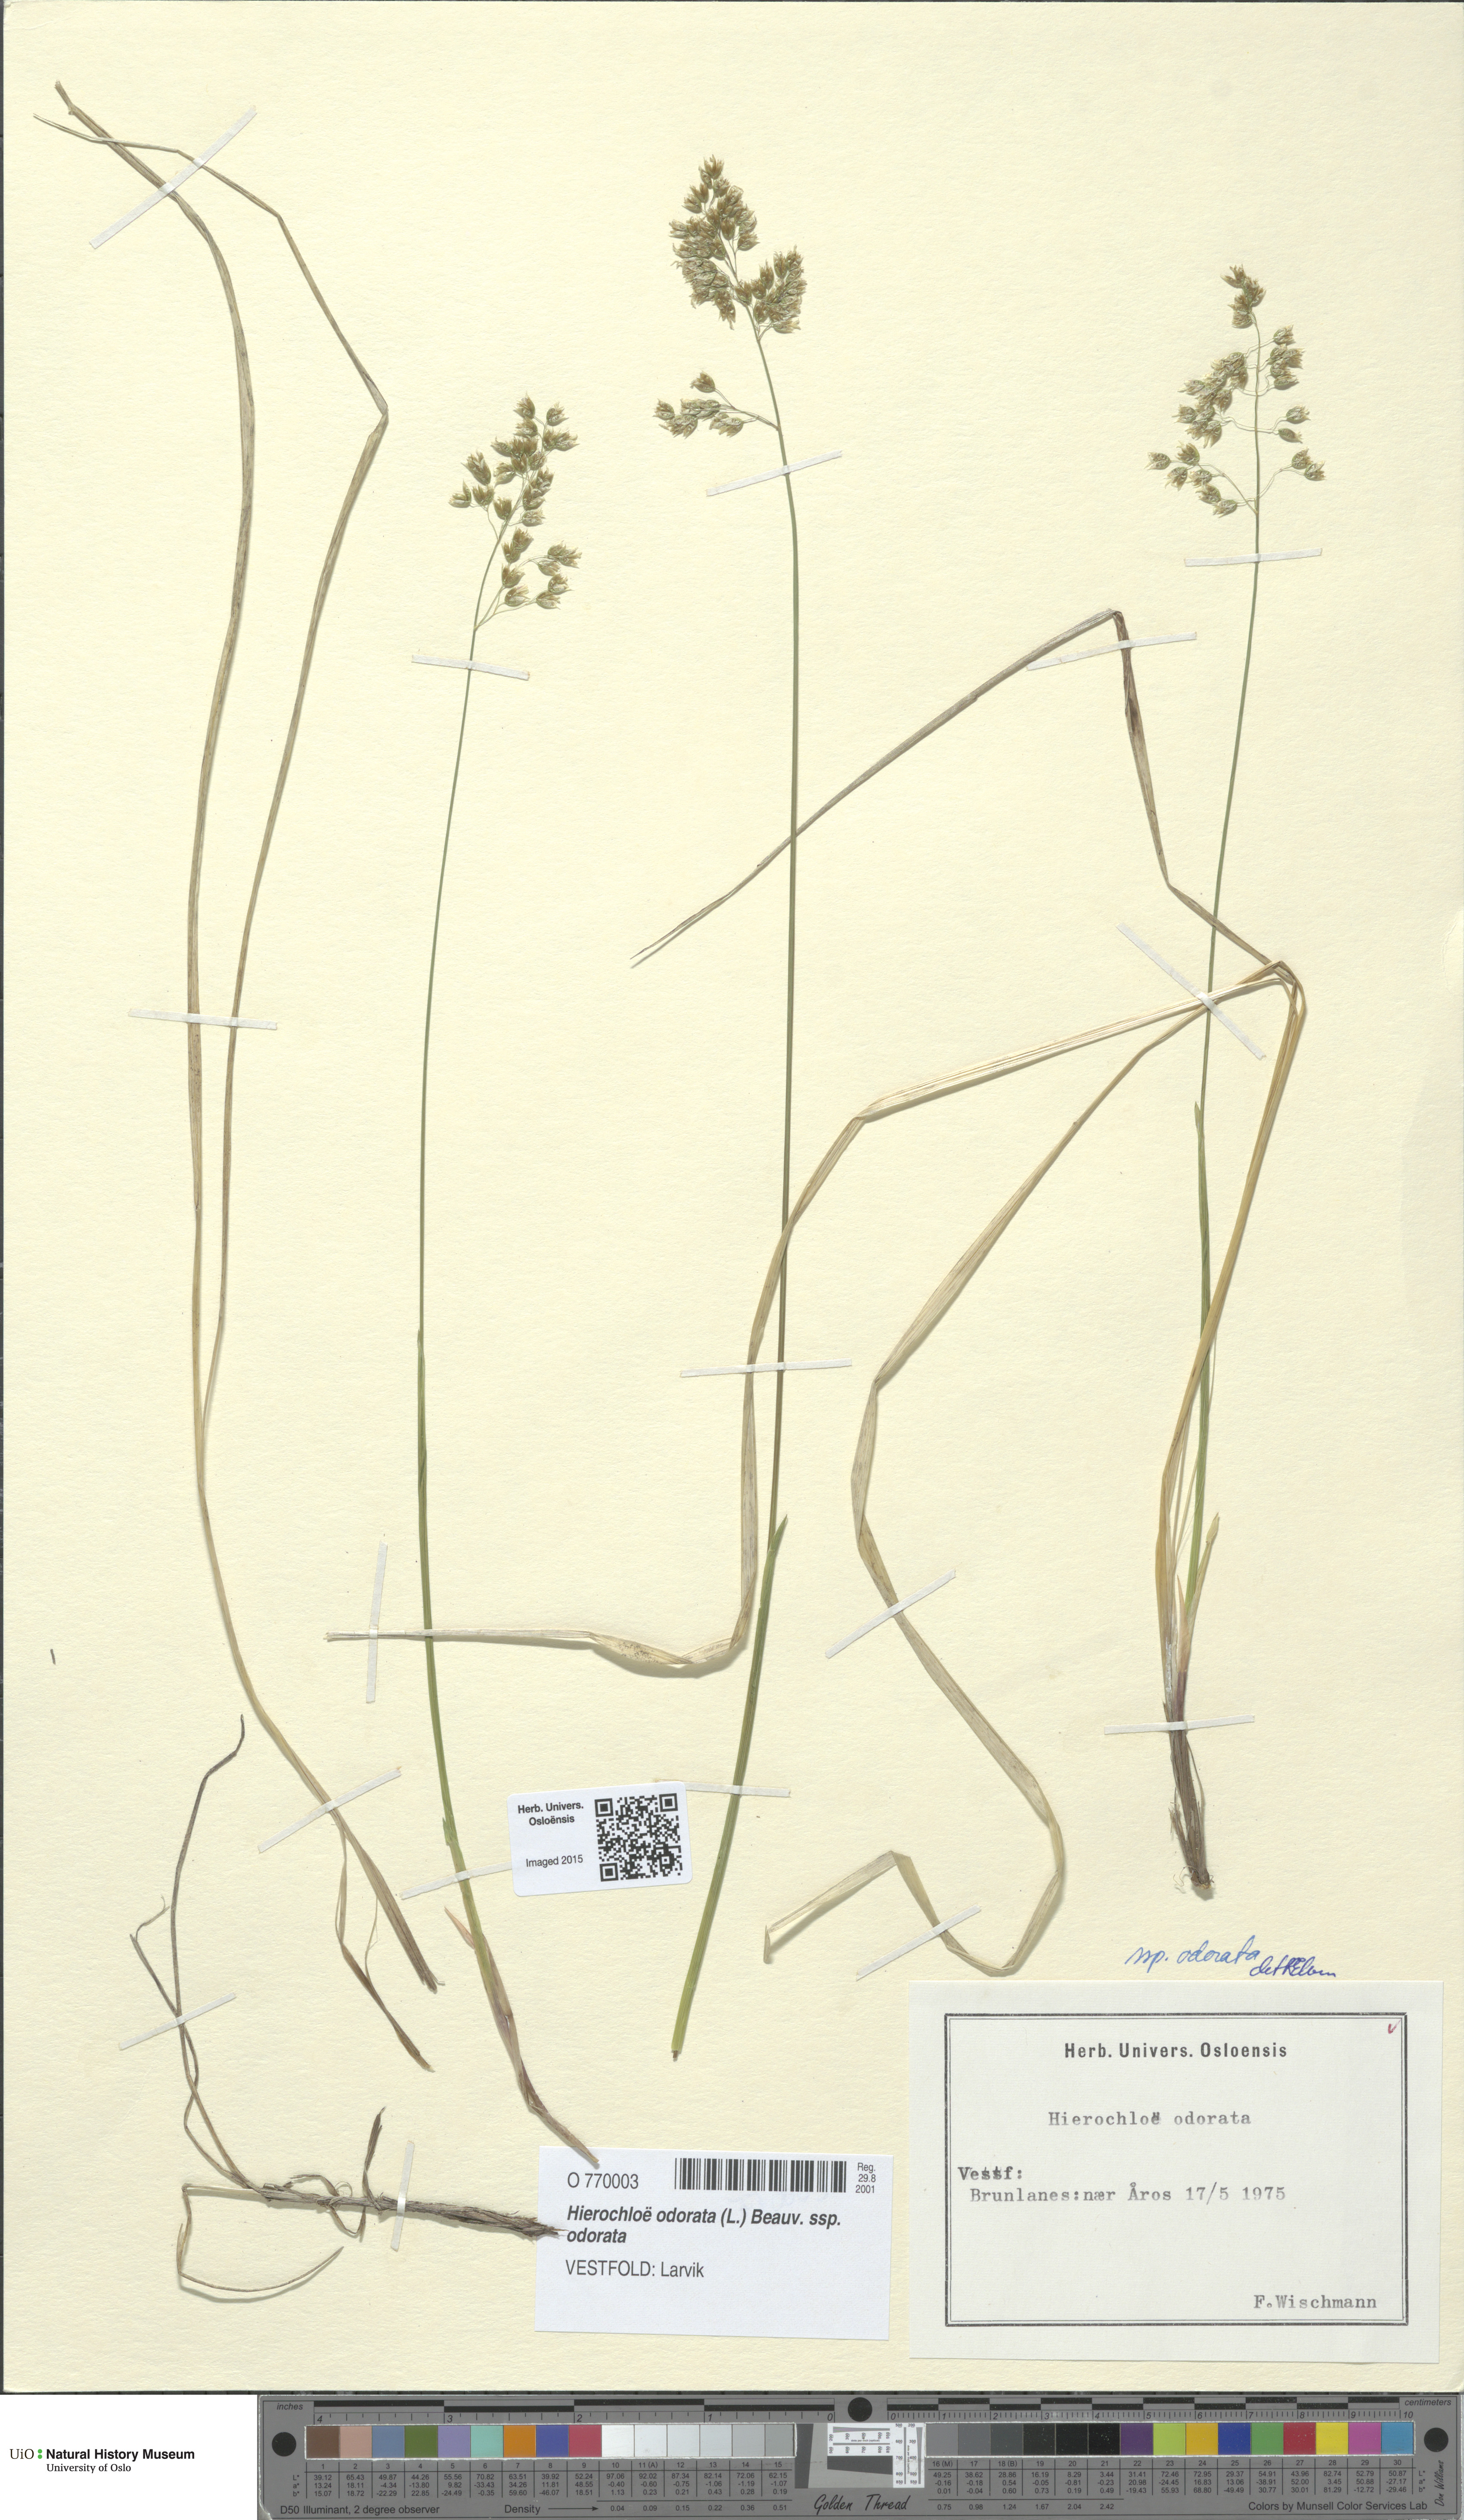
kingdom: Plantae
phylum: Tracheophyta
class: Liliopsida
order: Poales
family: Poaceae
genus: Anthoxanthum
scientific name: Anthoxanthum nitens
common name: Holy grass
